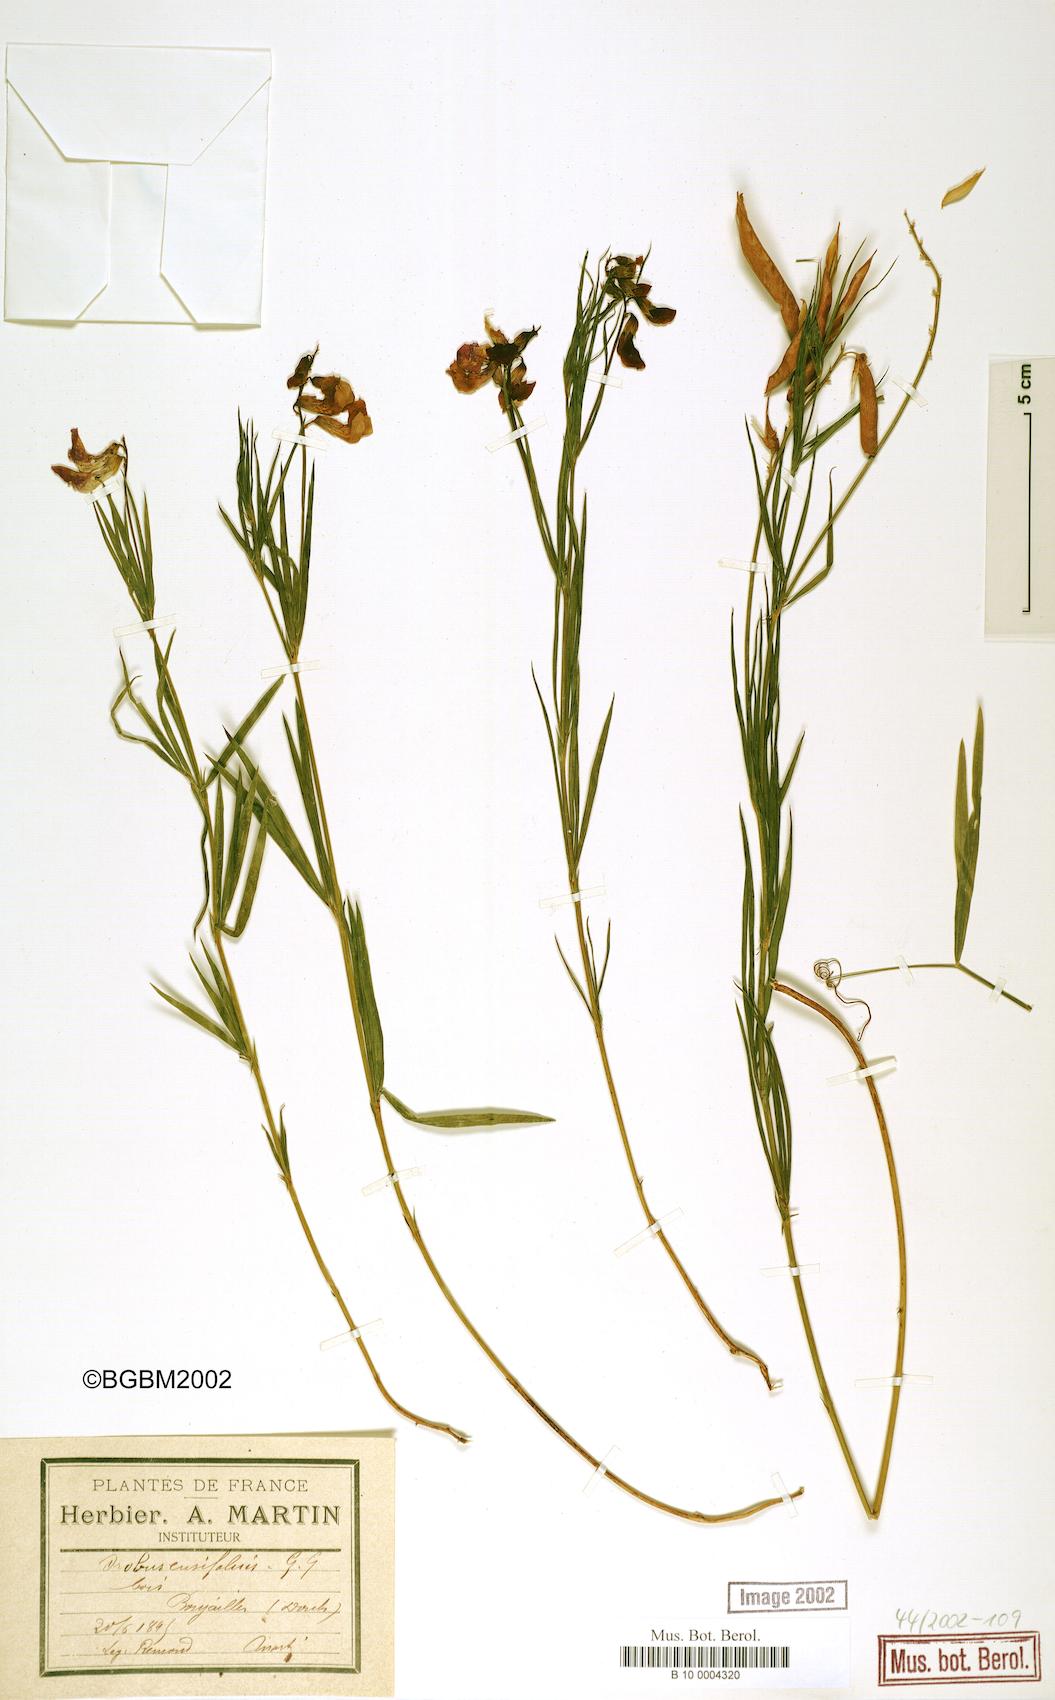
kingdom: Plantae
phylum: Tracheophyta
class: Magnoliopsida
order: Fabales
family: Fabaceae
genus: Lathyrus
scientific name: Lathyrus bauhini
